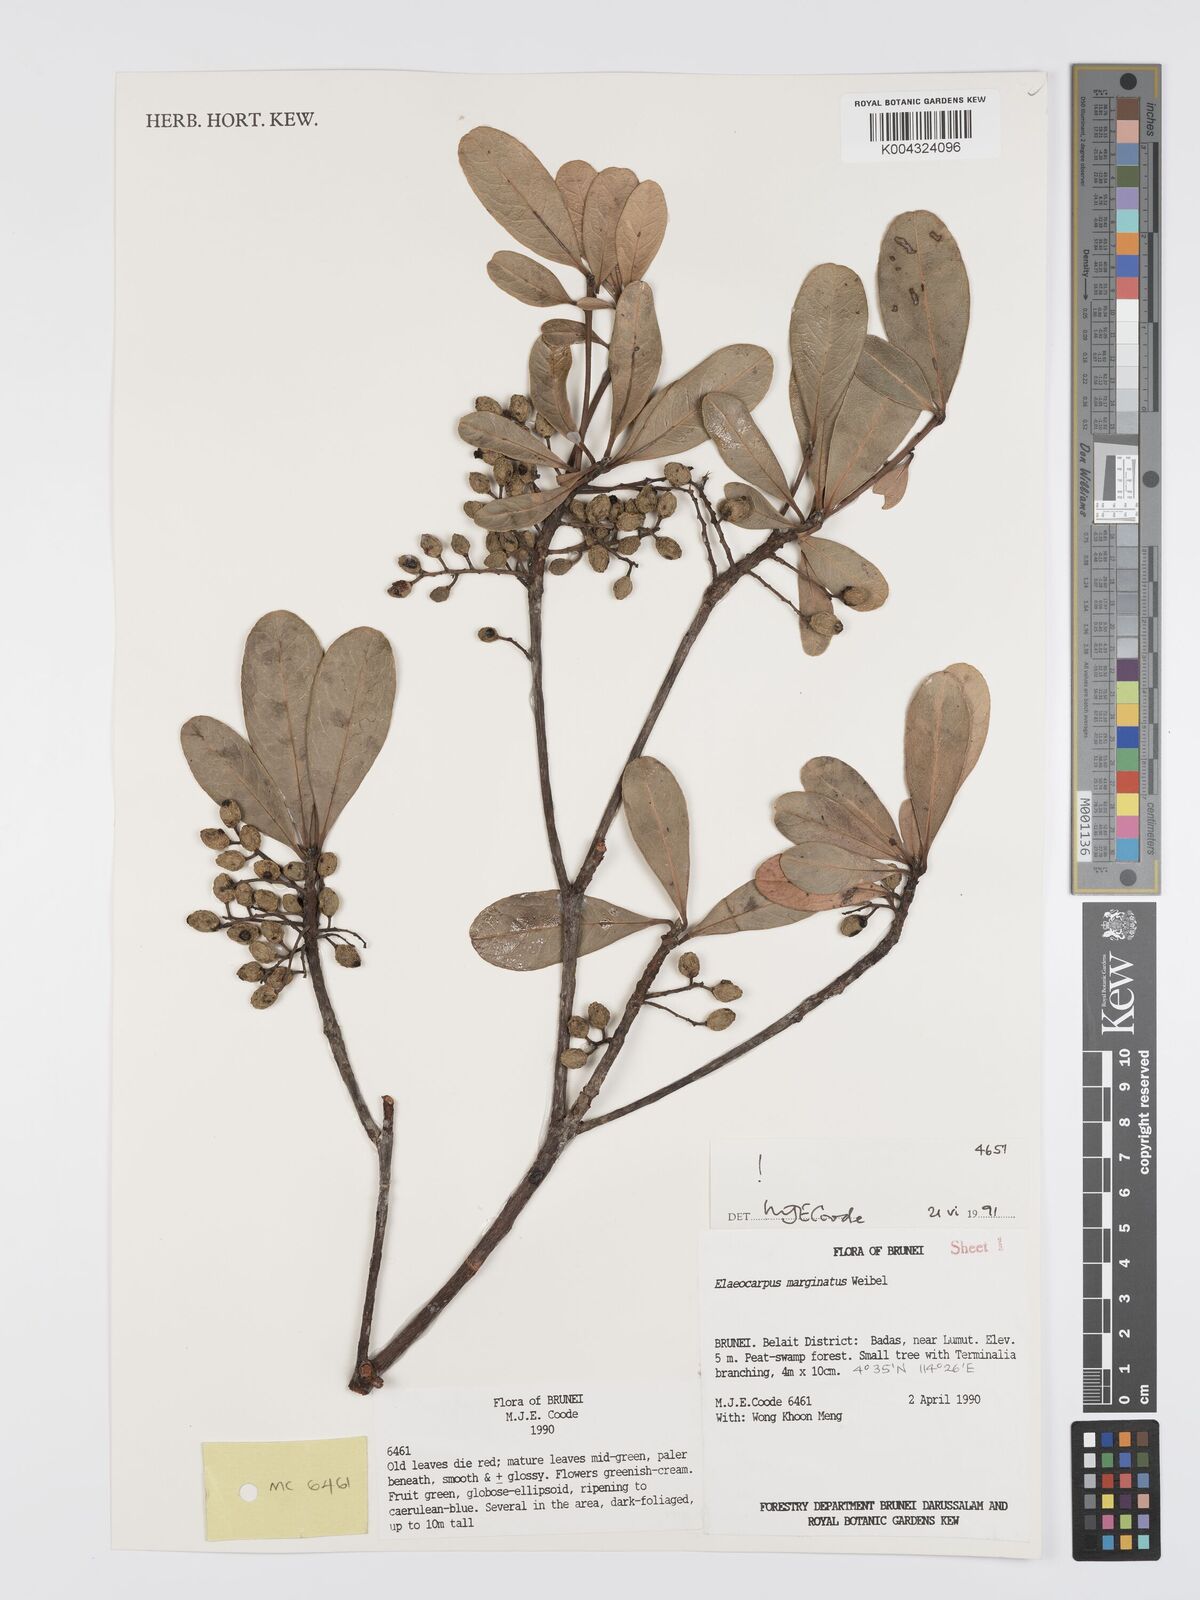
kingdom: Plantae
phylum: Tracheophyta
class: Magnoliopsida
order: Oxalidales
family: Elaeocarpaceae
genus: Elaeocarpus
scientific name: Elaeocarpus marginatus
